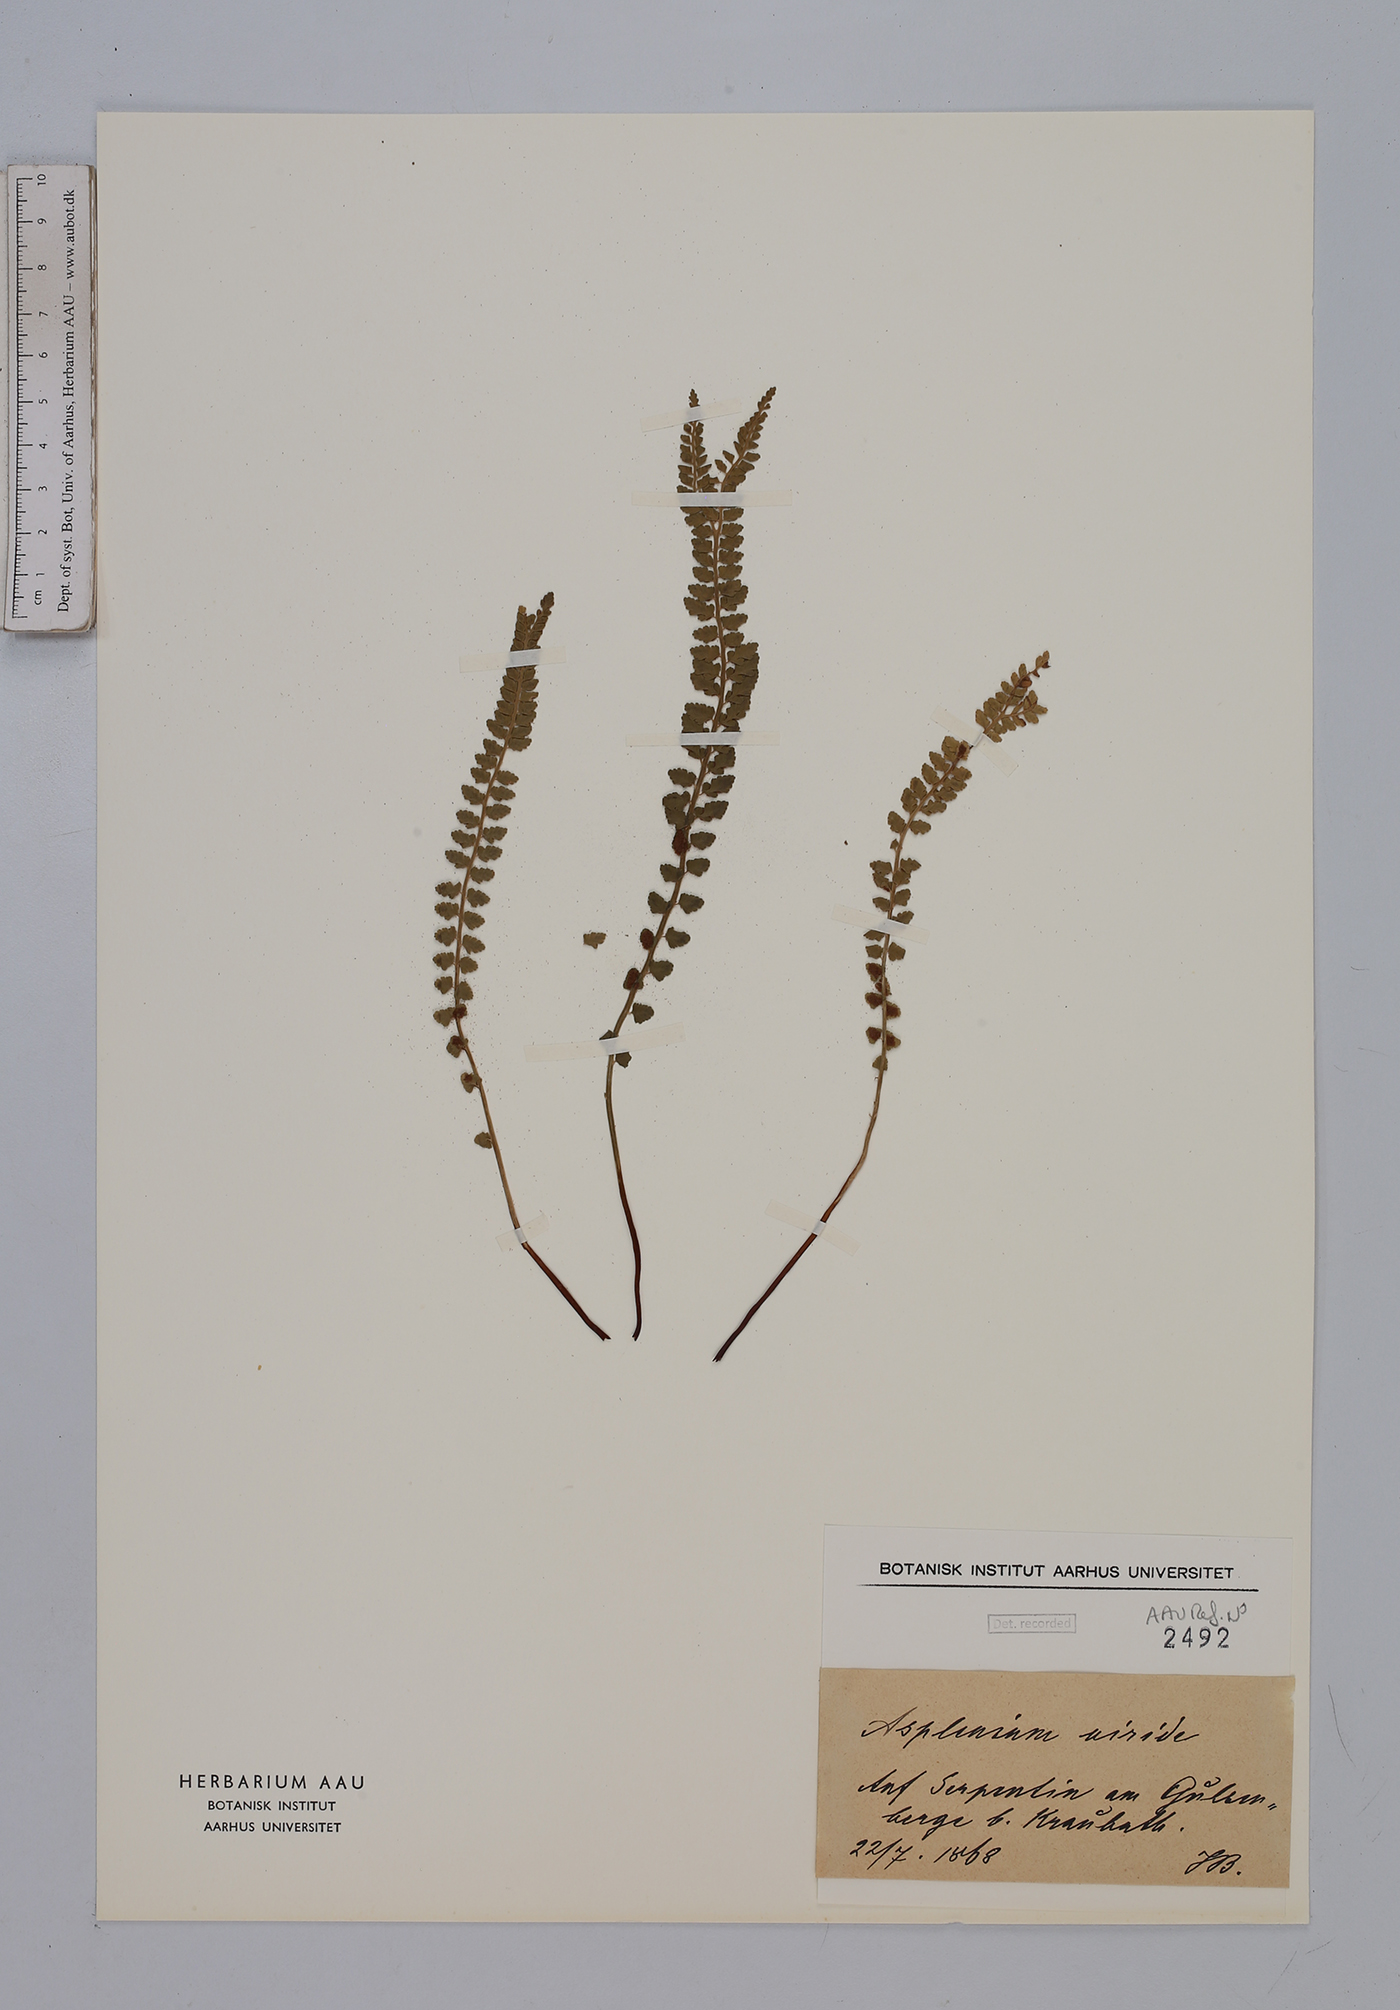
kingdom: Plantae
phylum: Tracheophyta
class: Polypodiopsida
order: Polypodiales
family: Aspleniaceae
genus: Asplenium
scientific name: Asplenium viride
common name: Green spleenwort
